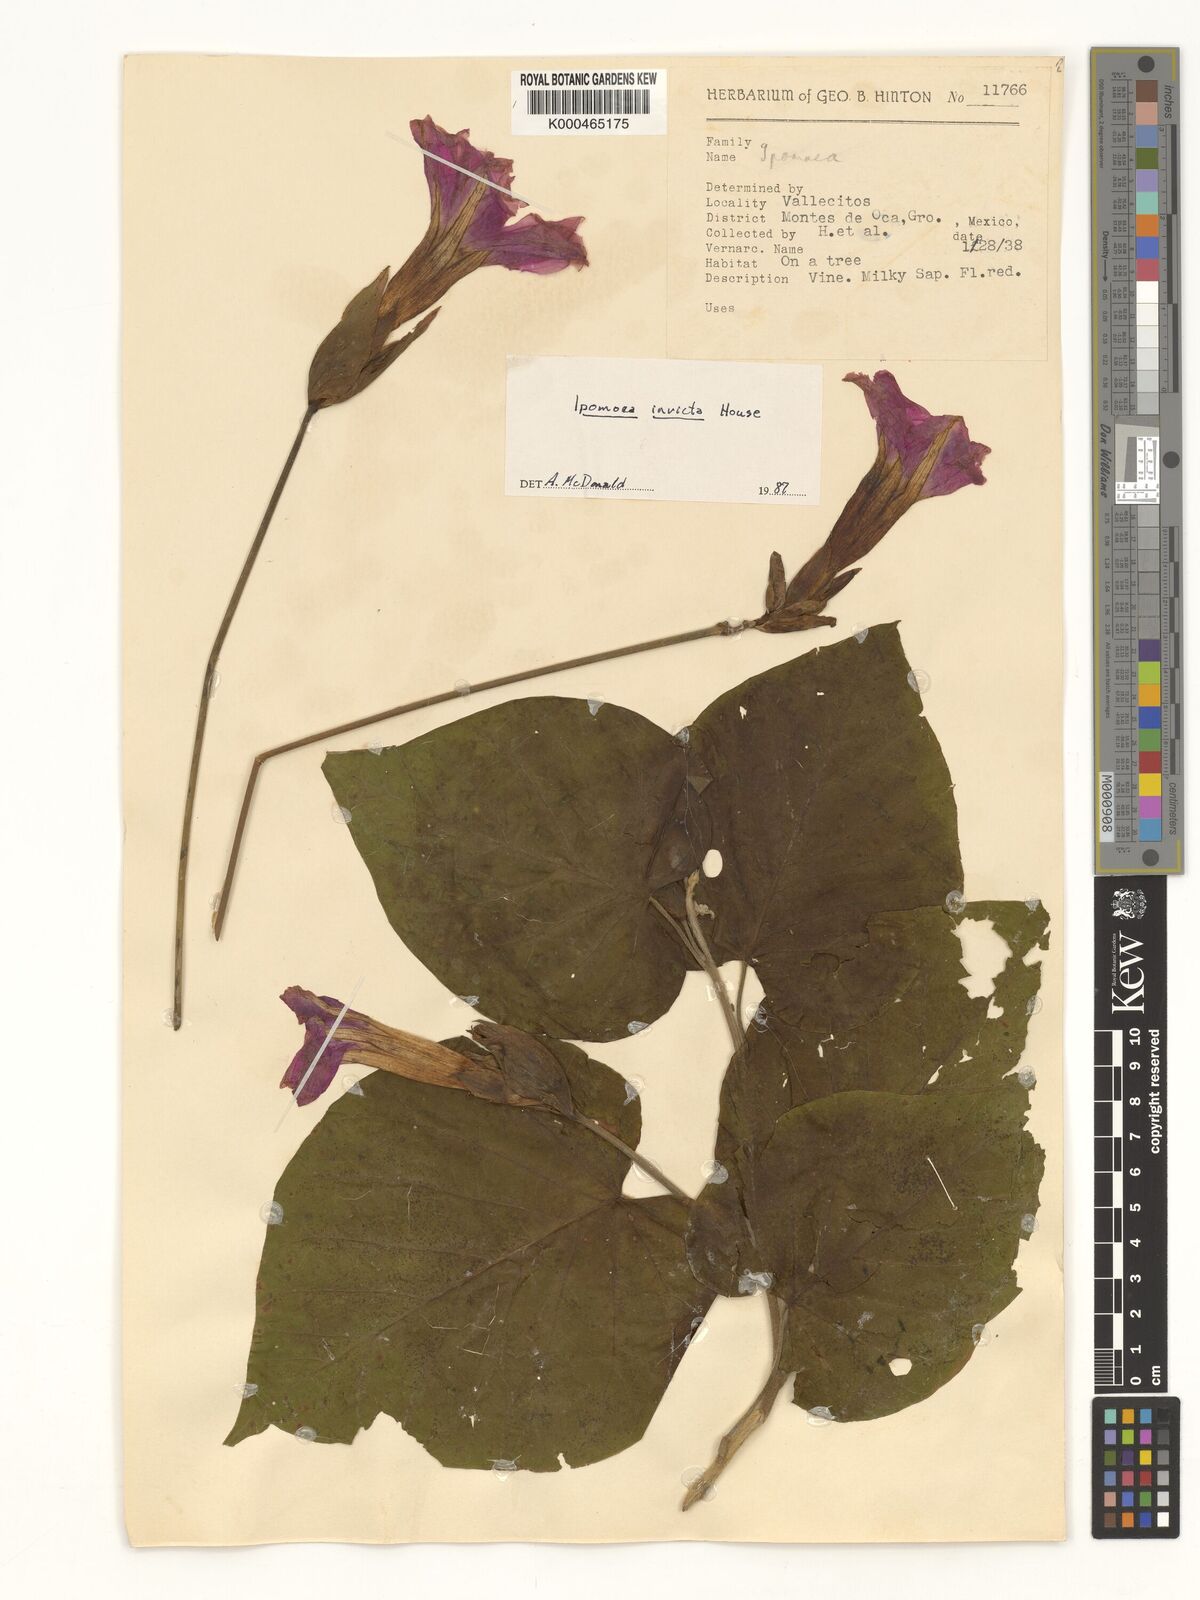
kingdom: Plantae
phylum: Tracheophyta
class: Magnoliopsida
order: Solanales
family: Convolvulaceae
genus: Ipomoea
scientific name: Ipomoea invicta
